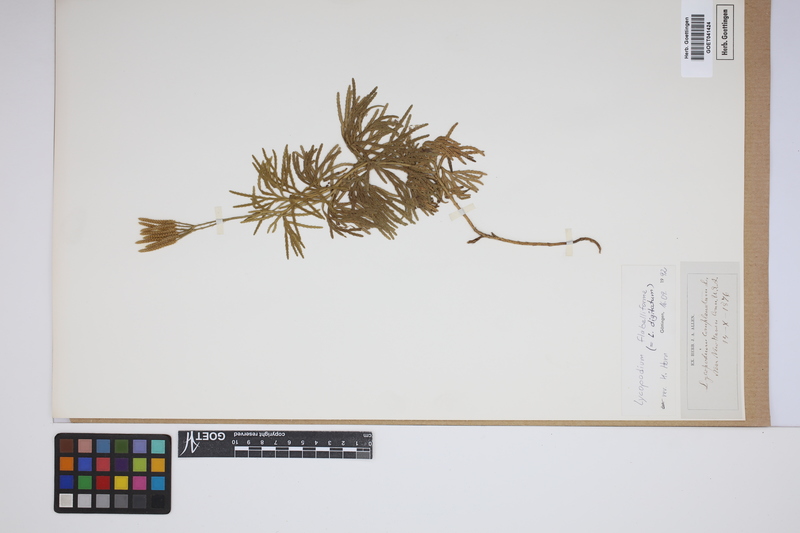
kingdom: Plantae
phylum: Tracheophyta
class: Lycopodiopsida
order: Lycopodiales
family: Lycopodiaceae
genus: Diphasiastrum
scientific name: Diphasiastrum digitatum
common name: Southern running-pine
